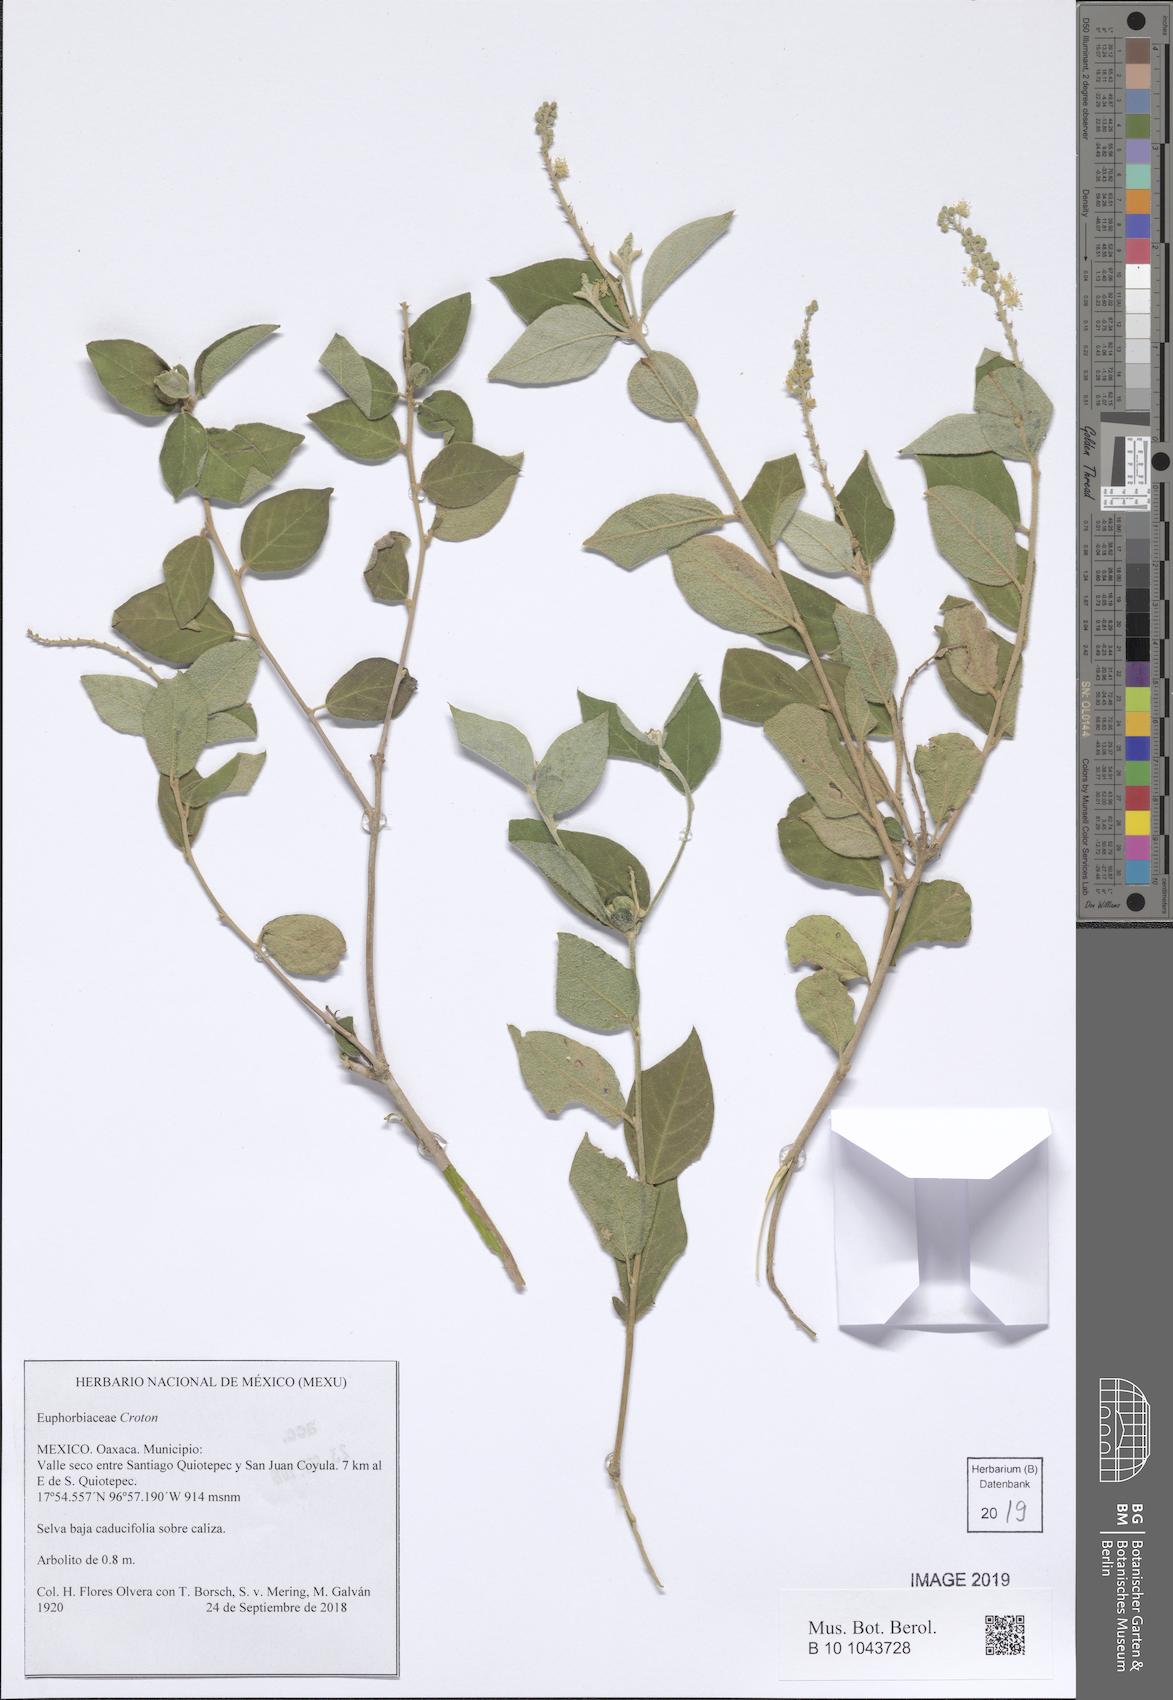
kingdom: Plantae
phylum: Tracheophyta
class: Magnoliopsida
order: Malpighiales
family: Euphorbiaceae
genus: Croton
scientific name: Croton
